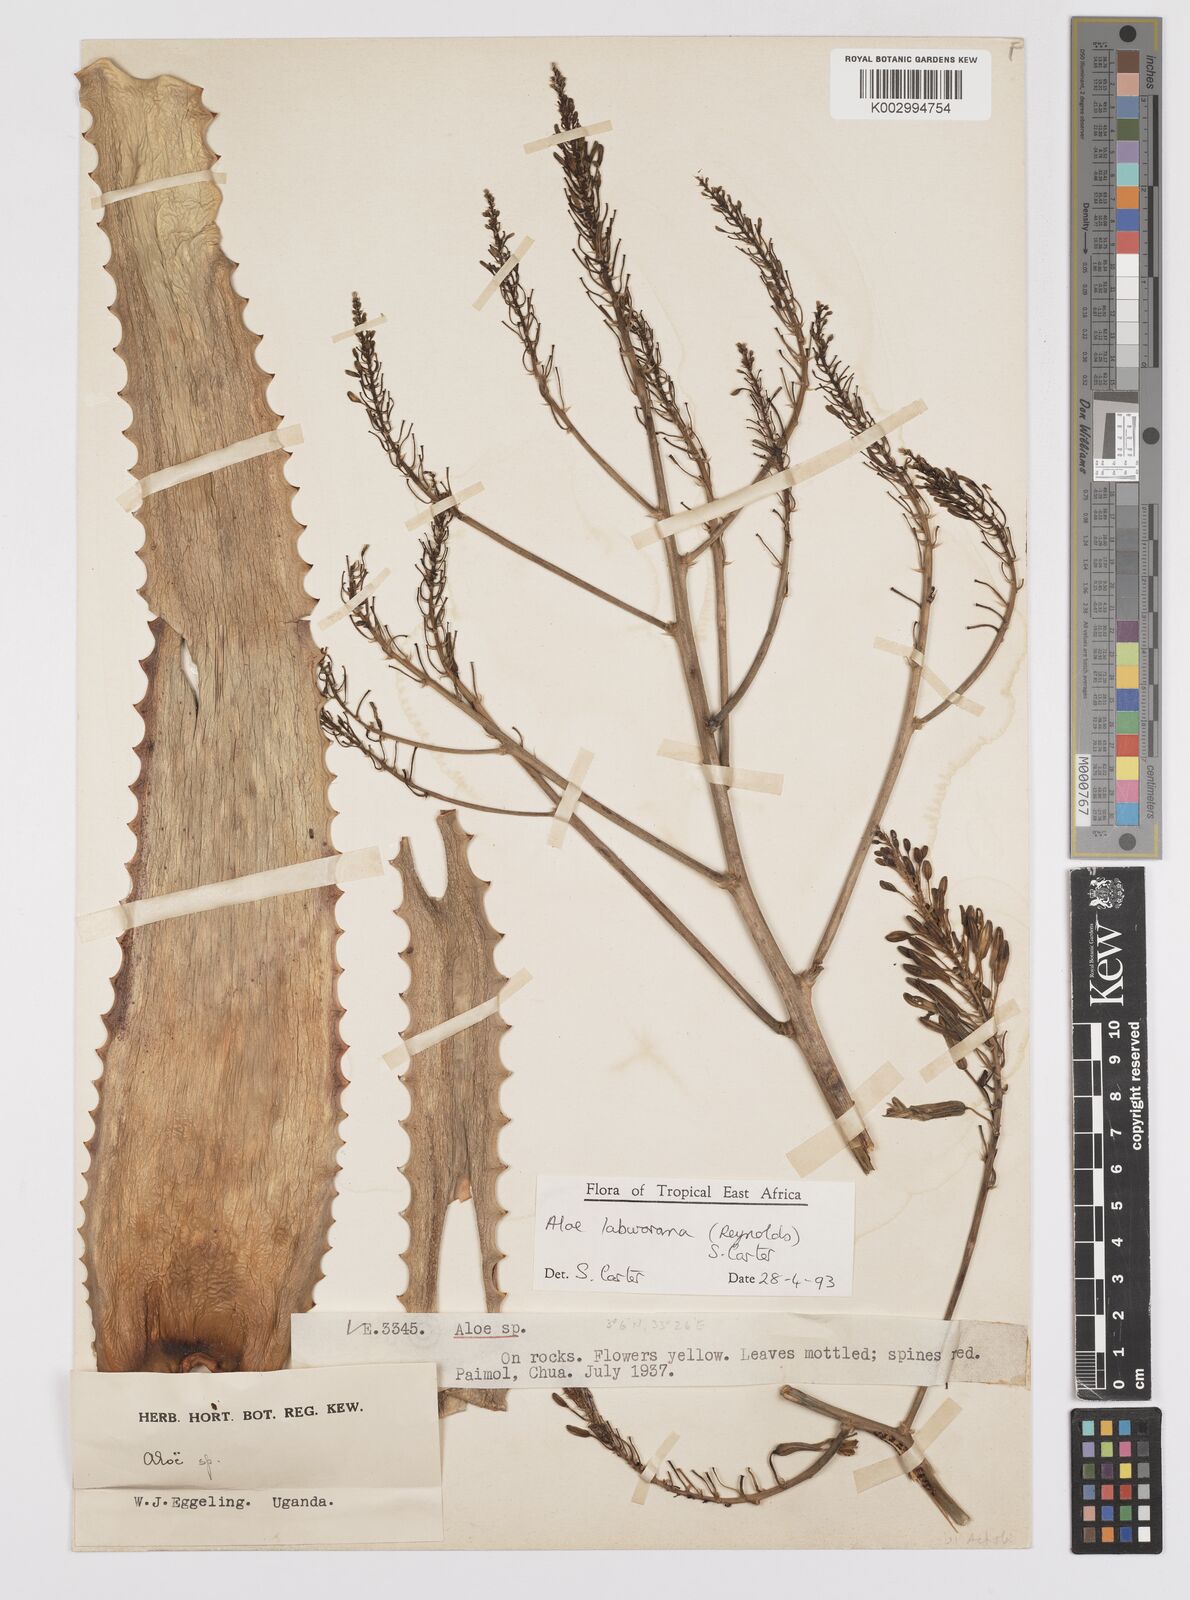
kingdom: Plantae
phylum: Tracheophyta
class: Liliopsida
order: Asparagales
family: Asphodelaceae
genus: Aloe
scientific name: Aloe labworana
